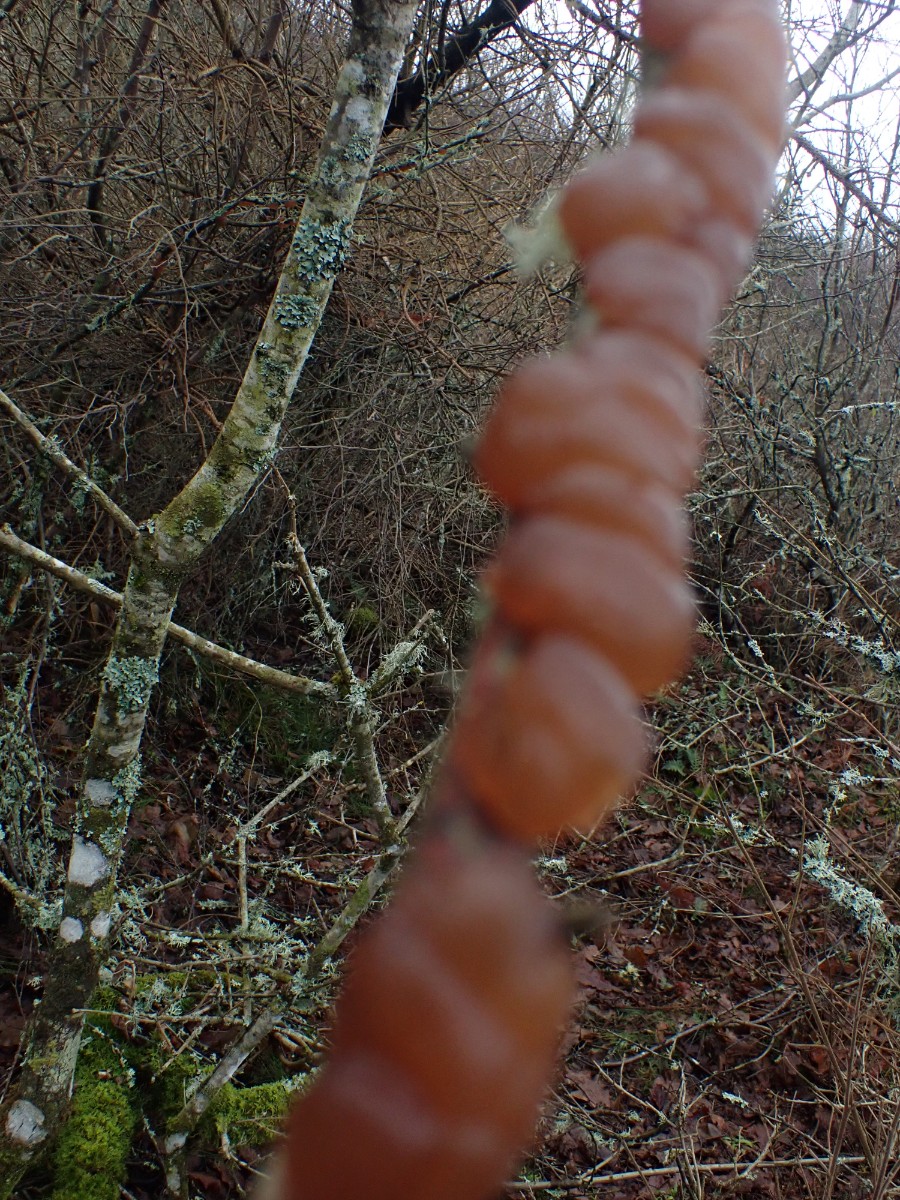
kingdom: Fungi
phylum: Basidiomycota
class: Agaricomycetes
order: Auriculariales
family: Auriculariaceae
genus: Exidia
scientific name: Exidia repanda
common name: udbredt bævretop
